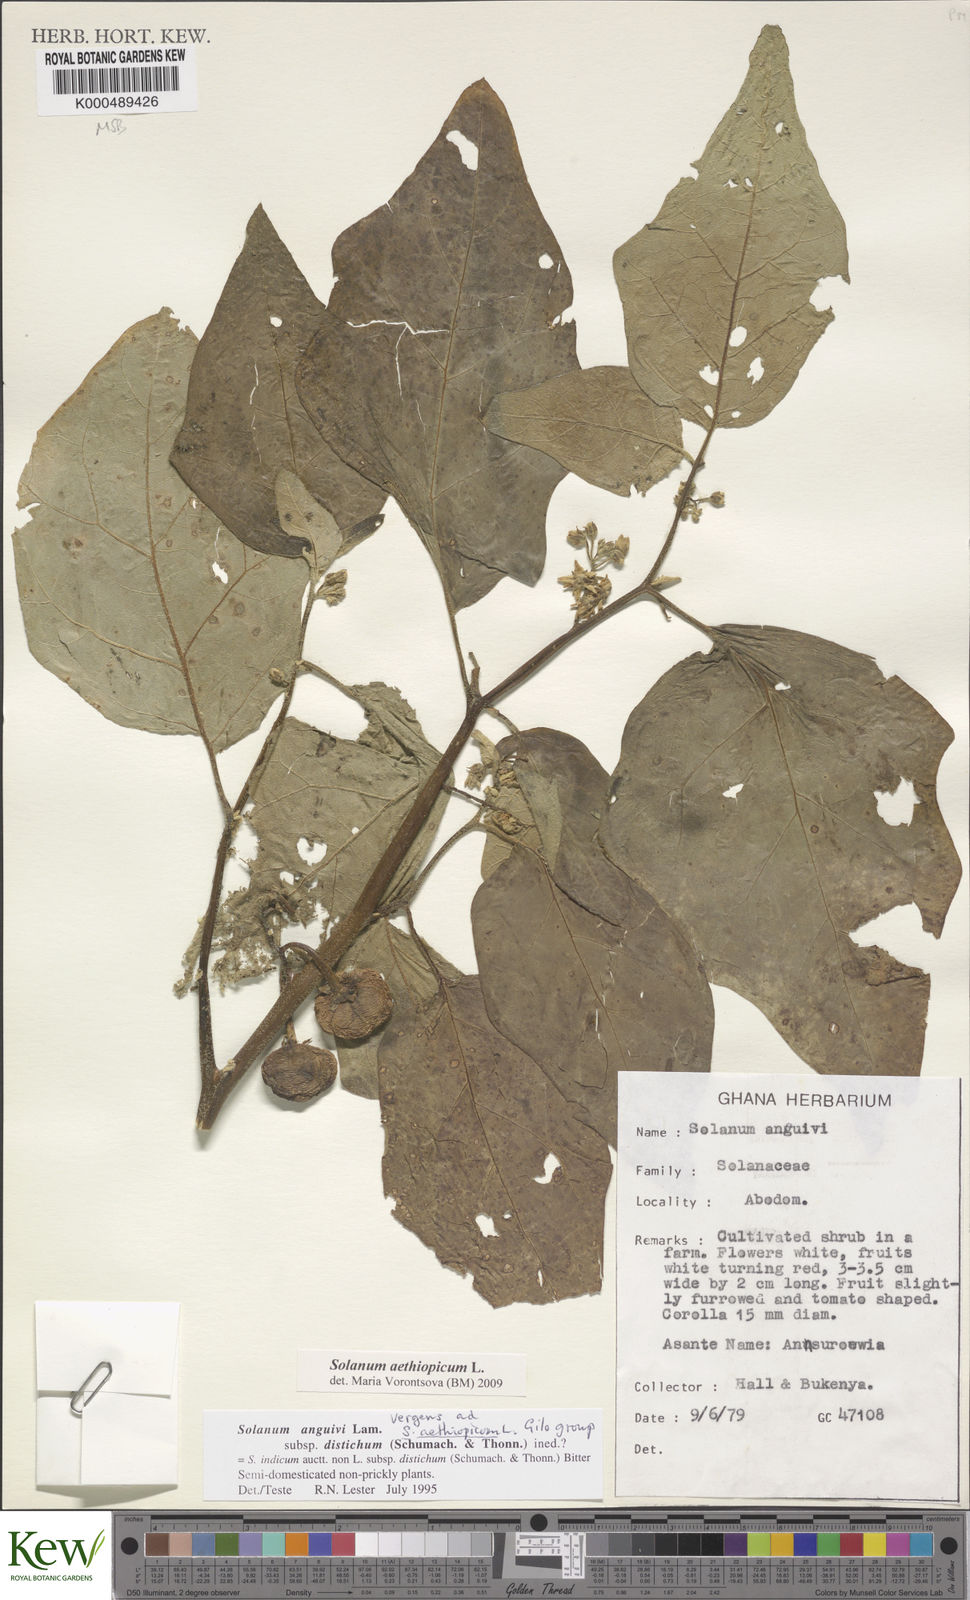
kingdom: Plantae
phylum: Tracheophyta
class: Magnoliopsida
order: Solanales
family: Solanaceae
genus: Solanum
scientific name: Solanum anguivi
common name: Forest bitterberry
